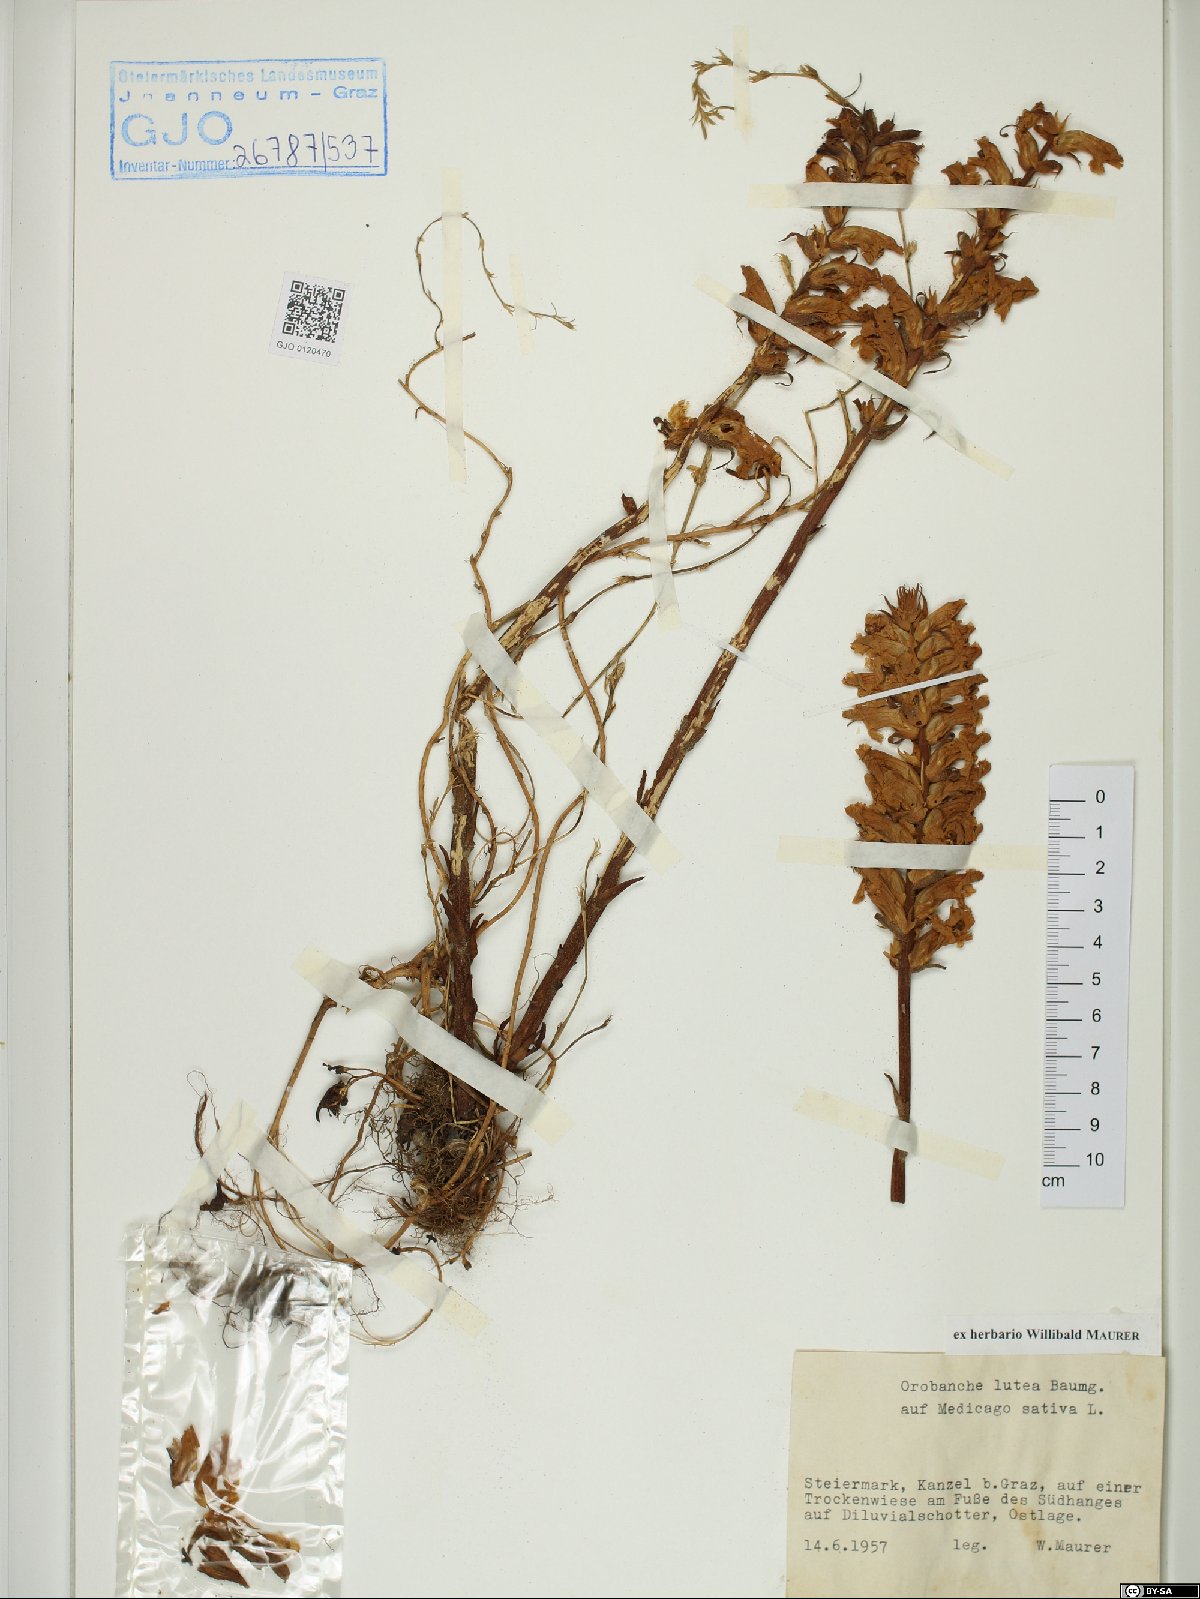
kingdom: Plantae
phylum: Tracheophyta
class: Magnoliopsida
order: Lamiales
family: Orobanchaceae
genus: Orobanche
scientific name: Orobanche lutea
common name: Yellow broomrape
